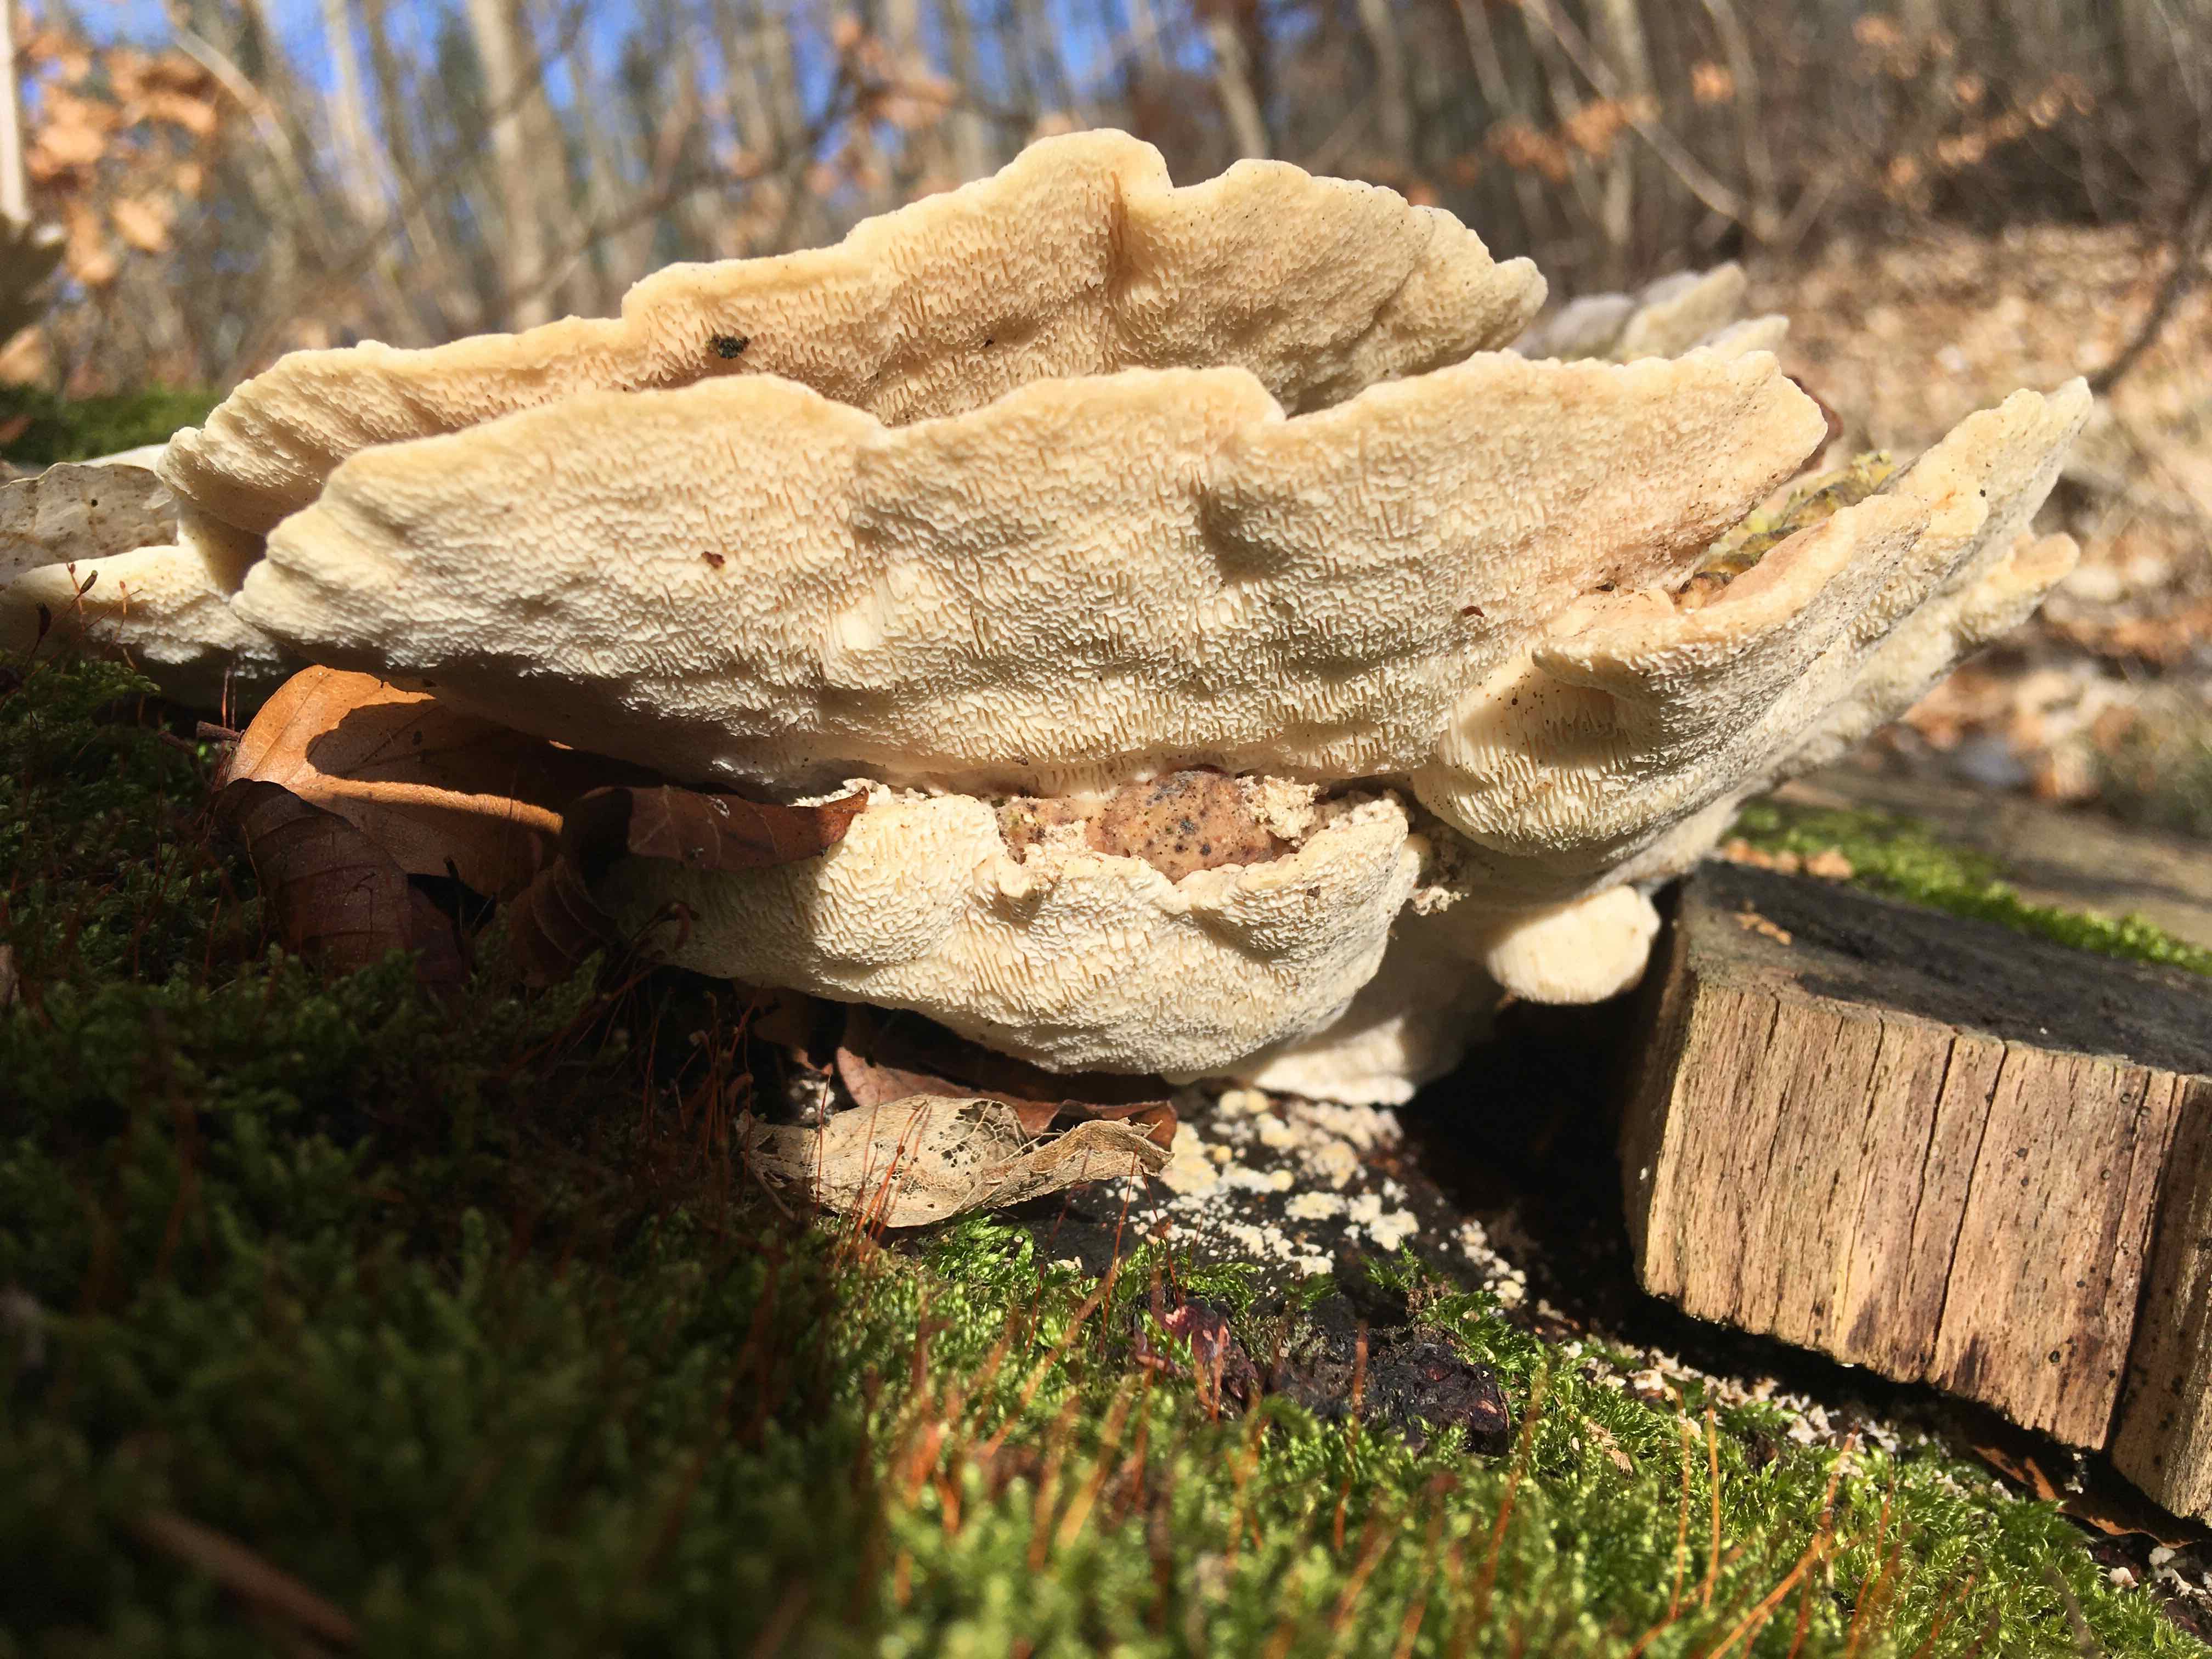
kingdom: Fungi
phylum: Basidiomycota
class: Agaricomycetes
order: Polyporales
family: Polyporaceae
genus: Trametes
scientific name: Trametes gibbosa
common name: puklet læderporesvamp
